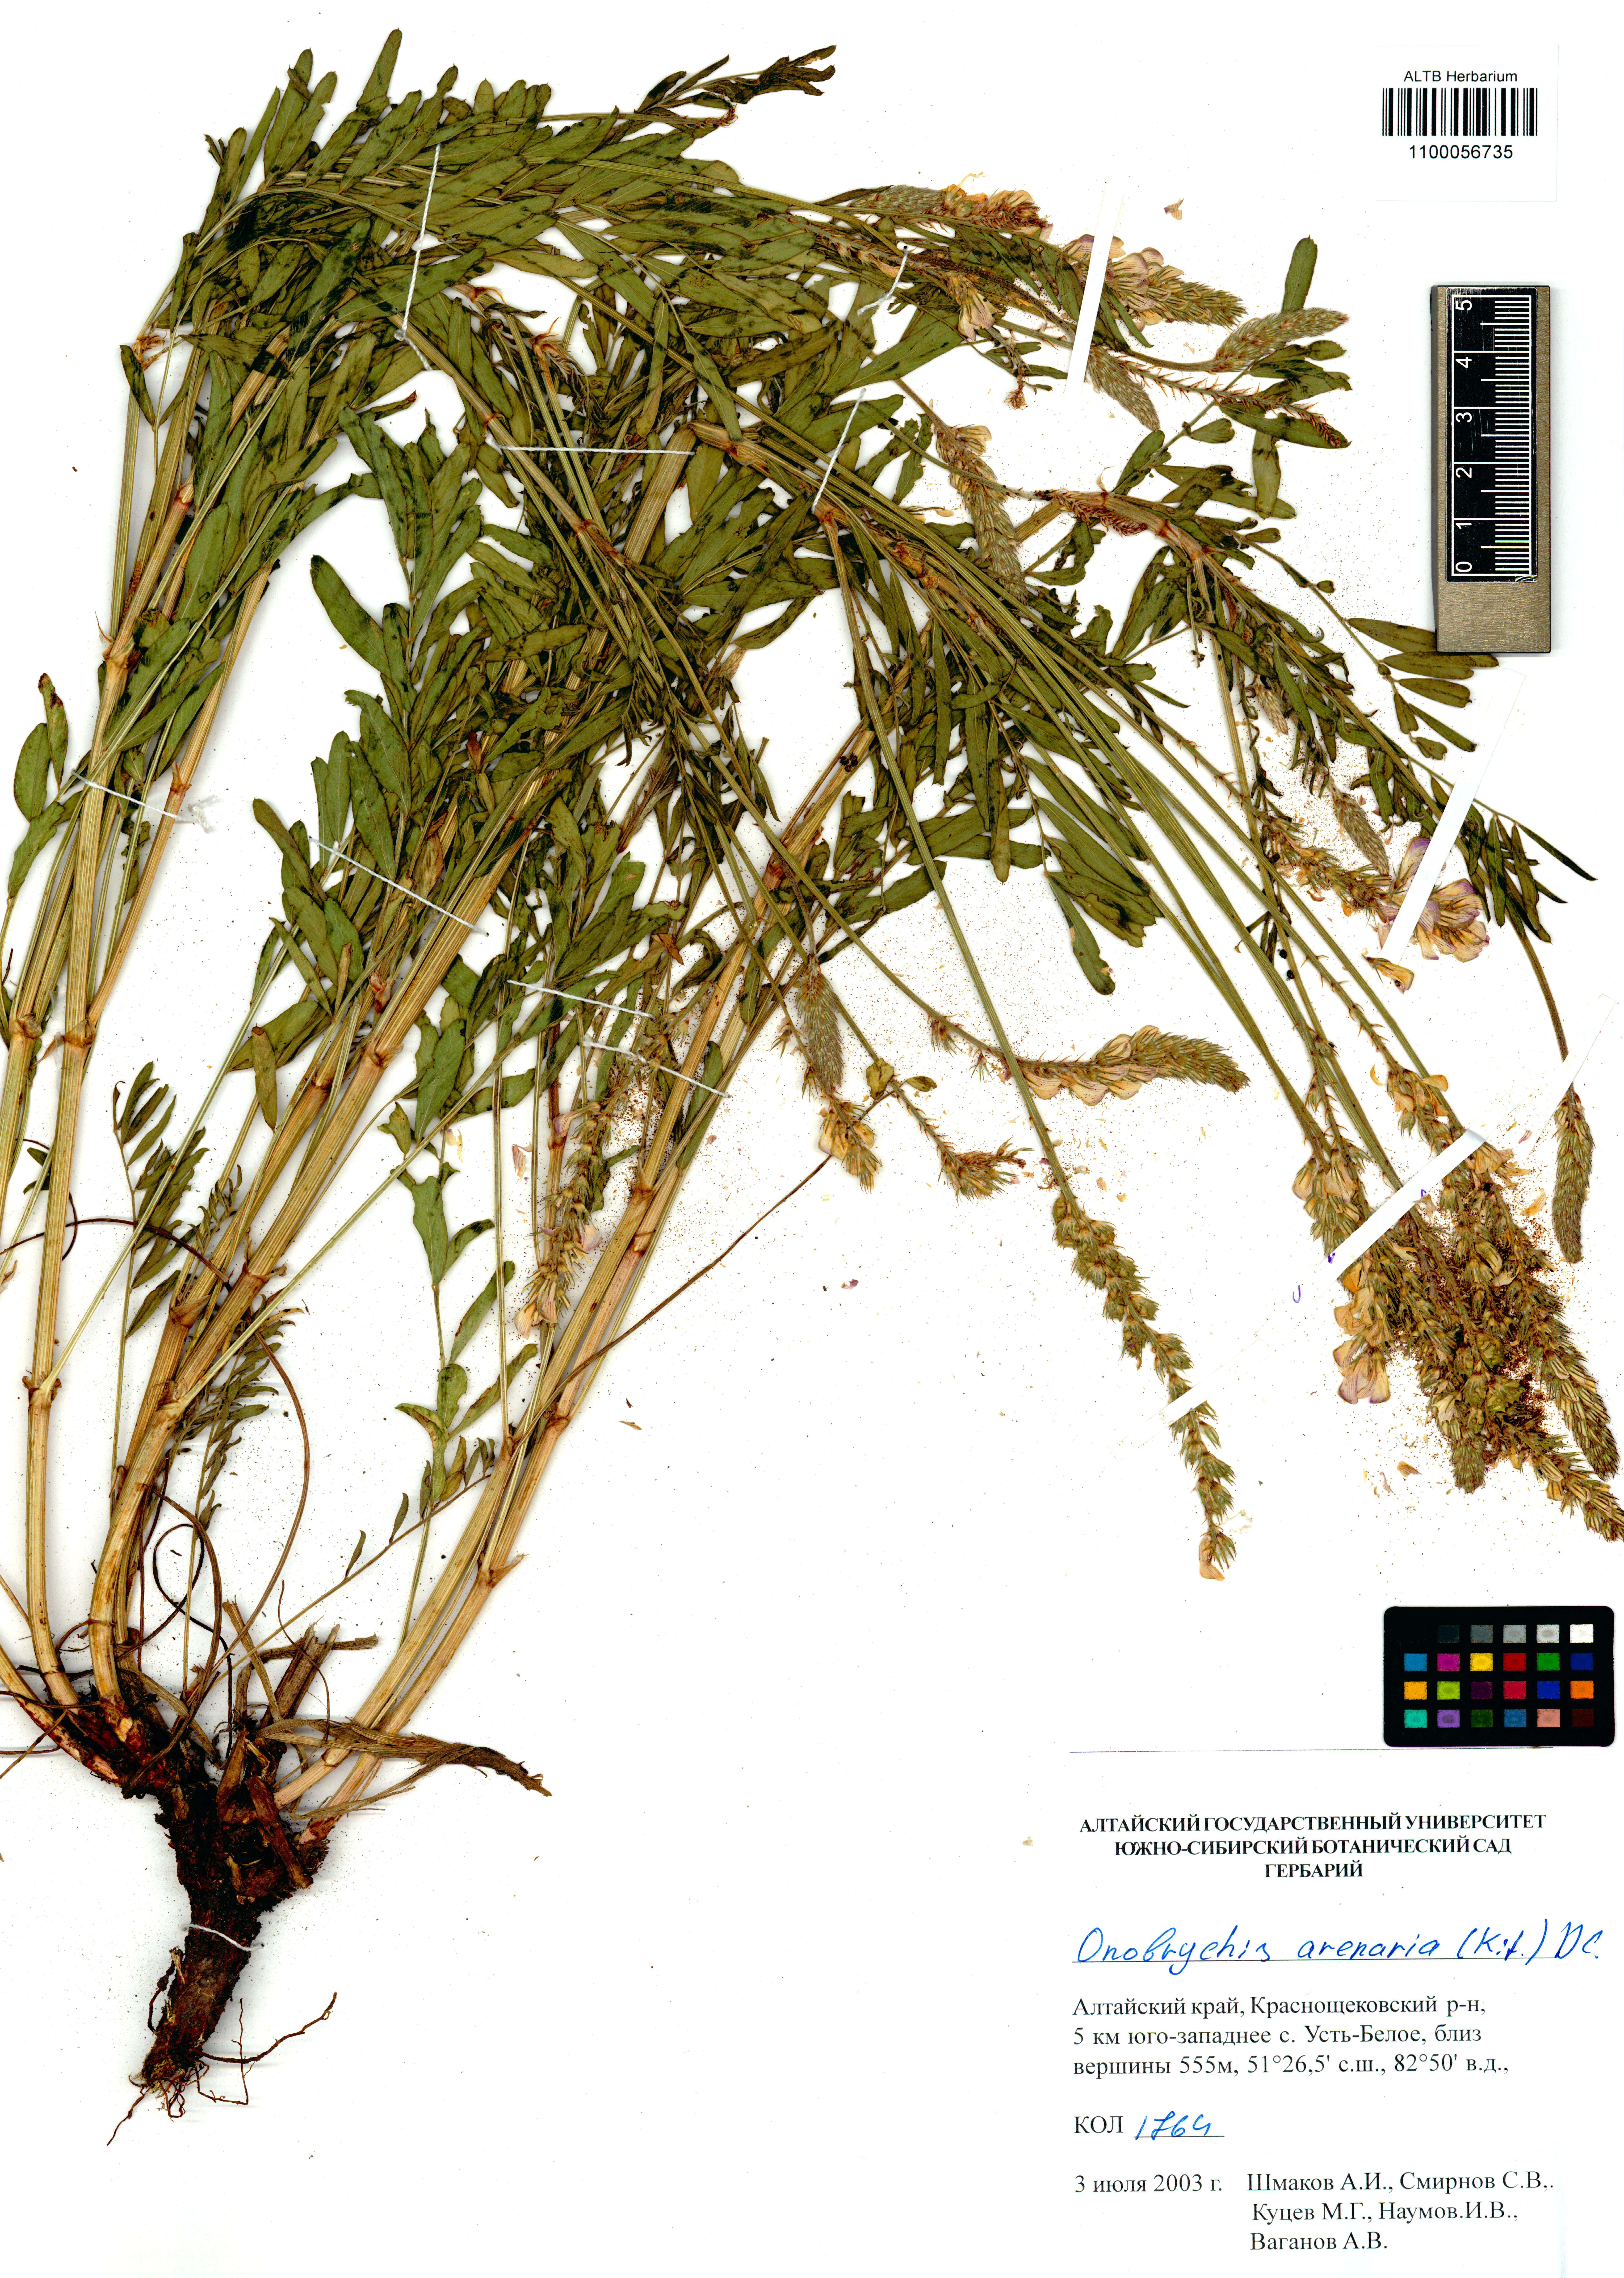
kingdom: Plantae
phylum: Tracheophyta
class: Magnoliopsida
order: Fabales
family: Fabaceae
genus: Onobrychis
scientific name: Onobrychis arenaria
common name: Sand esparcet
